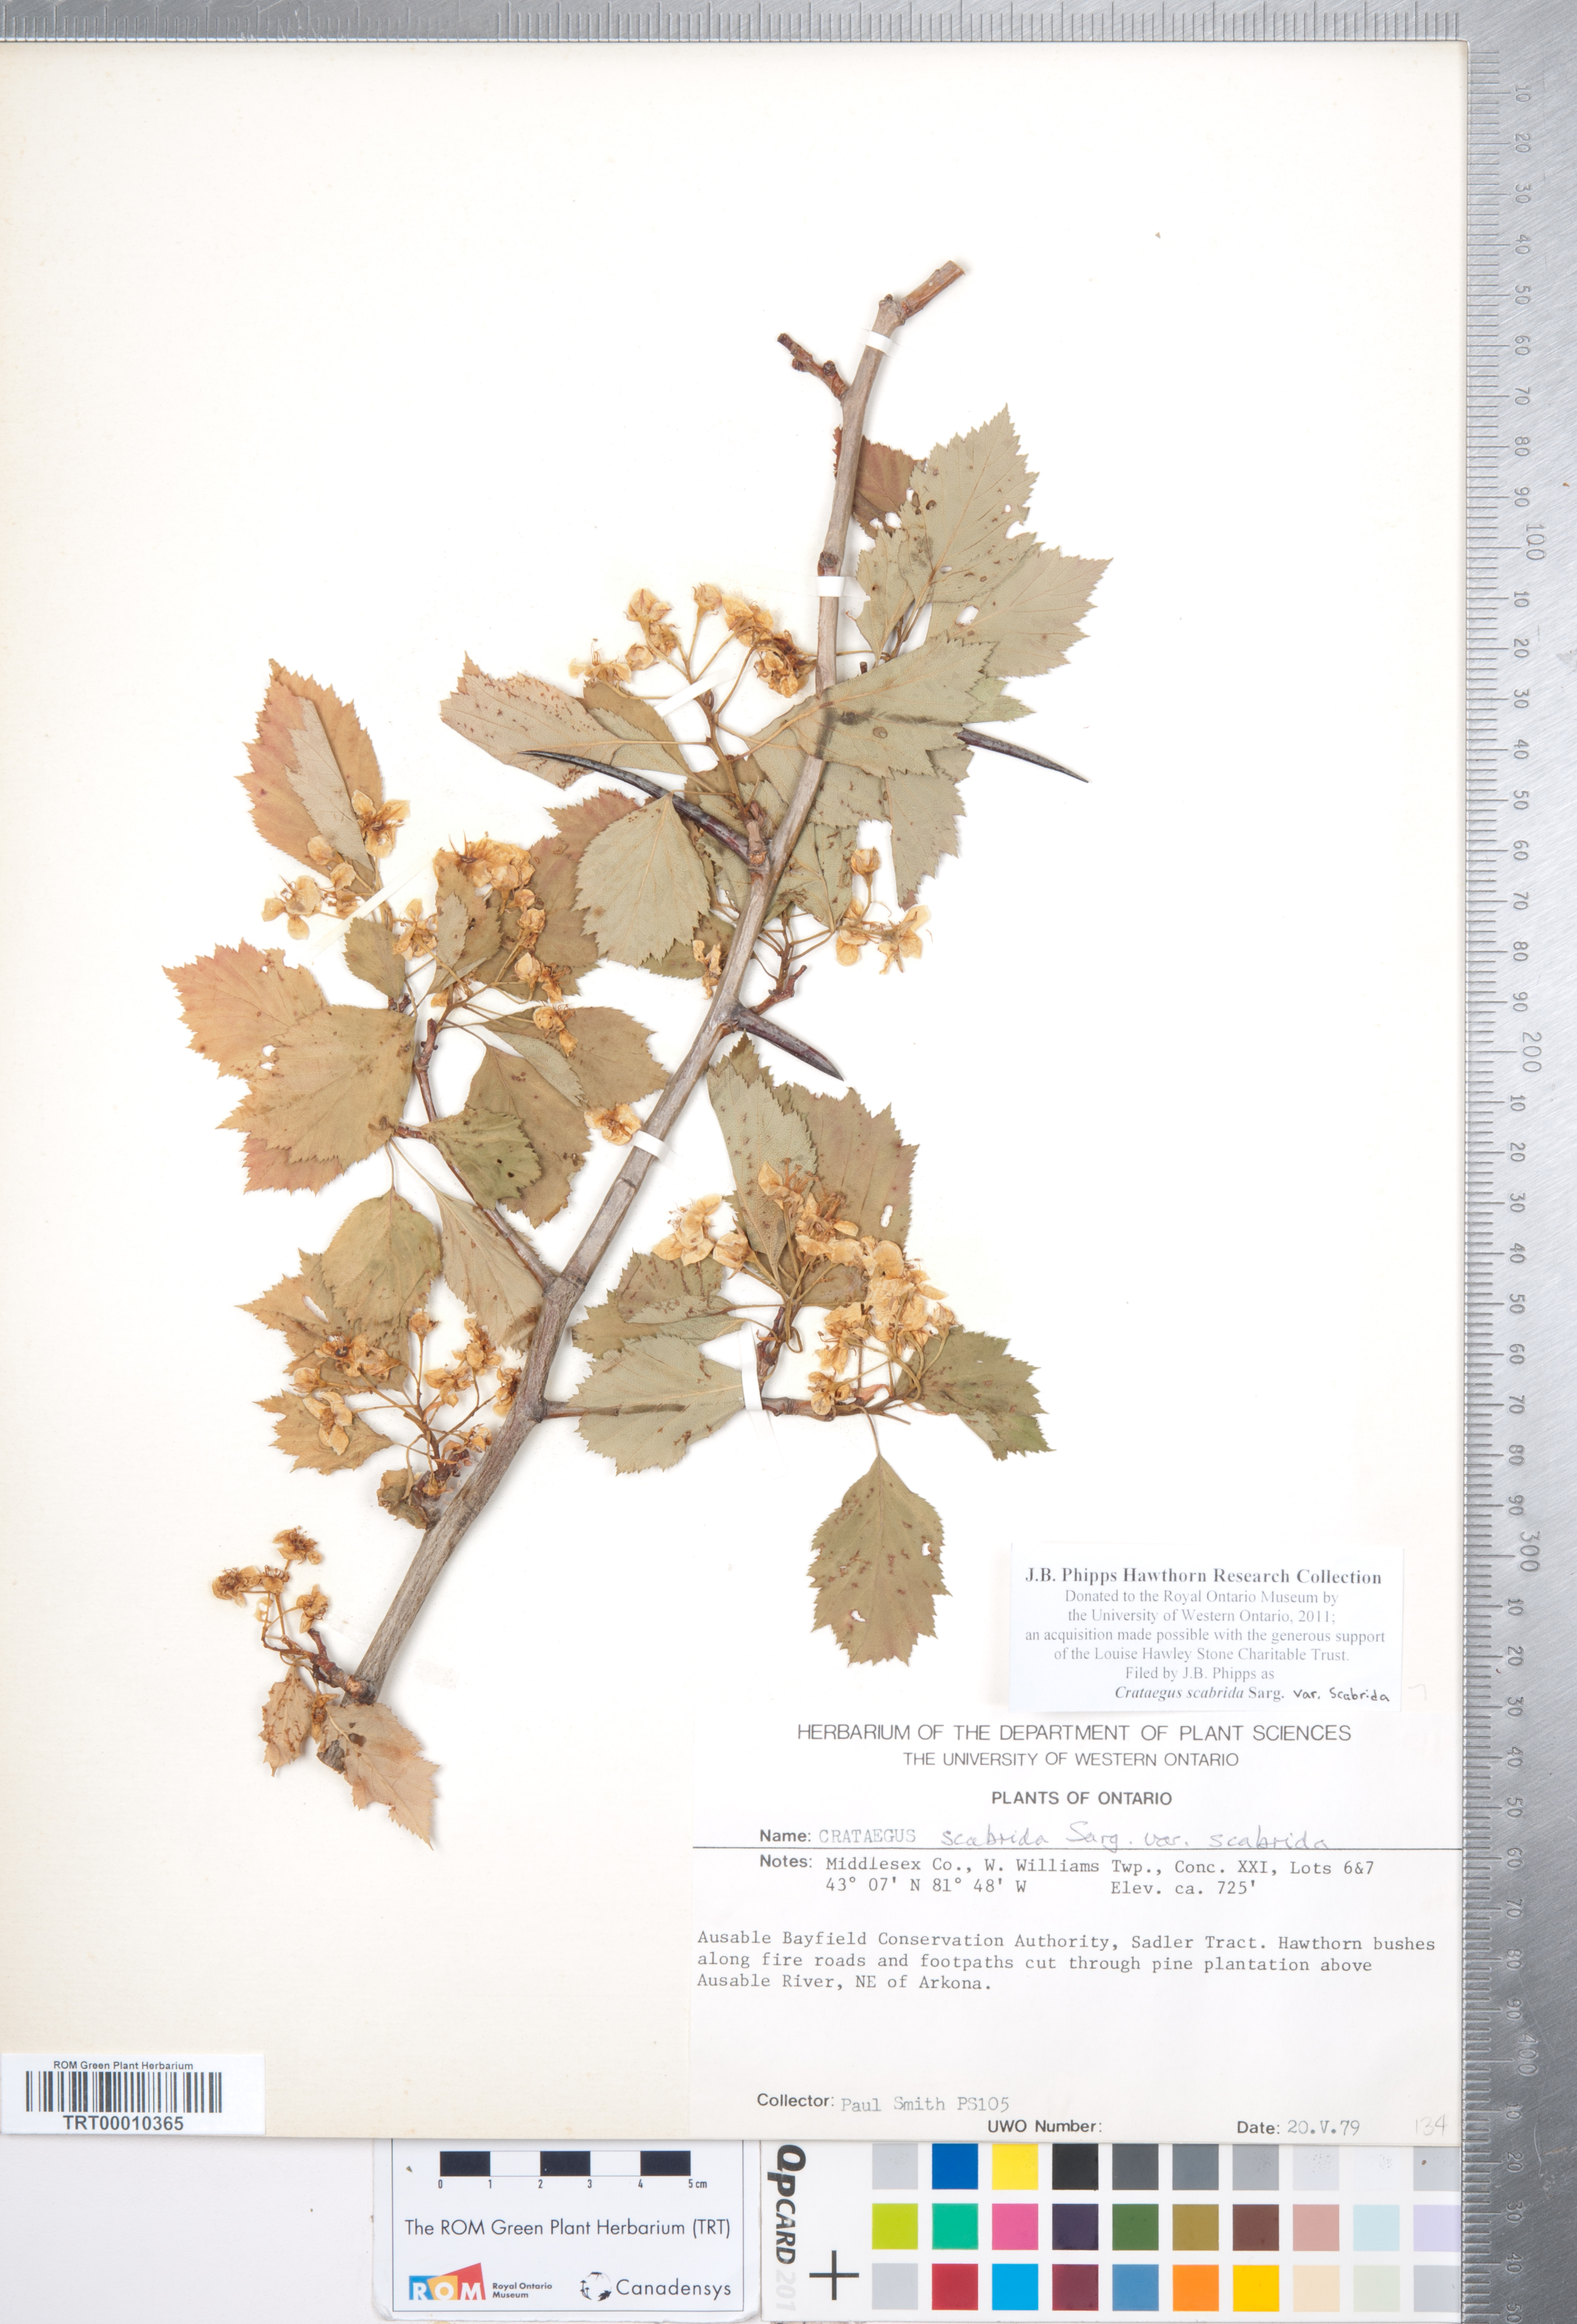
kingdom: Plantae
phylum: Tracheophyta
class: Magnoliopsida
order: Rosales
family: Rosaceae
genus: Crataegus
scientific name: Crataegus scabrida
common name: Rough hawthorn
